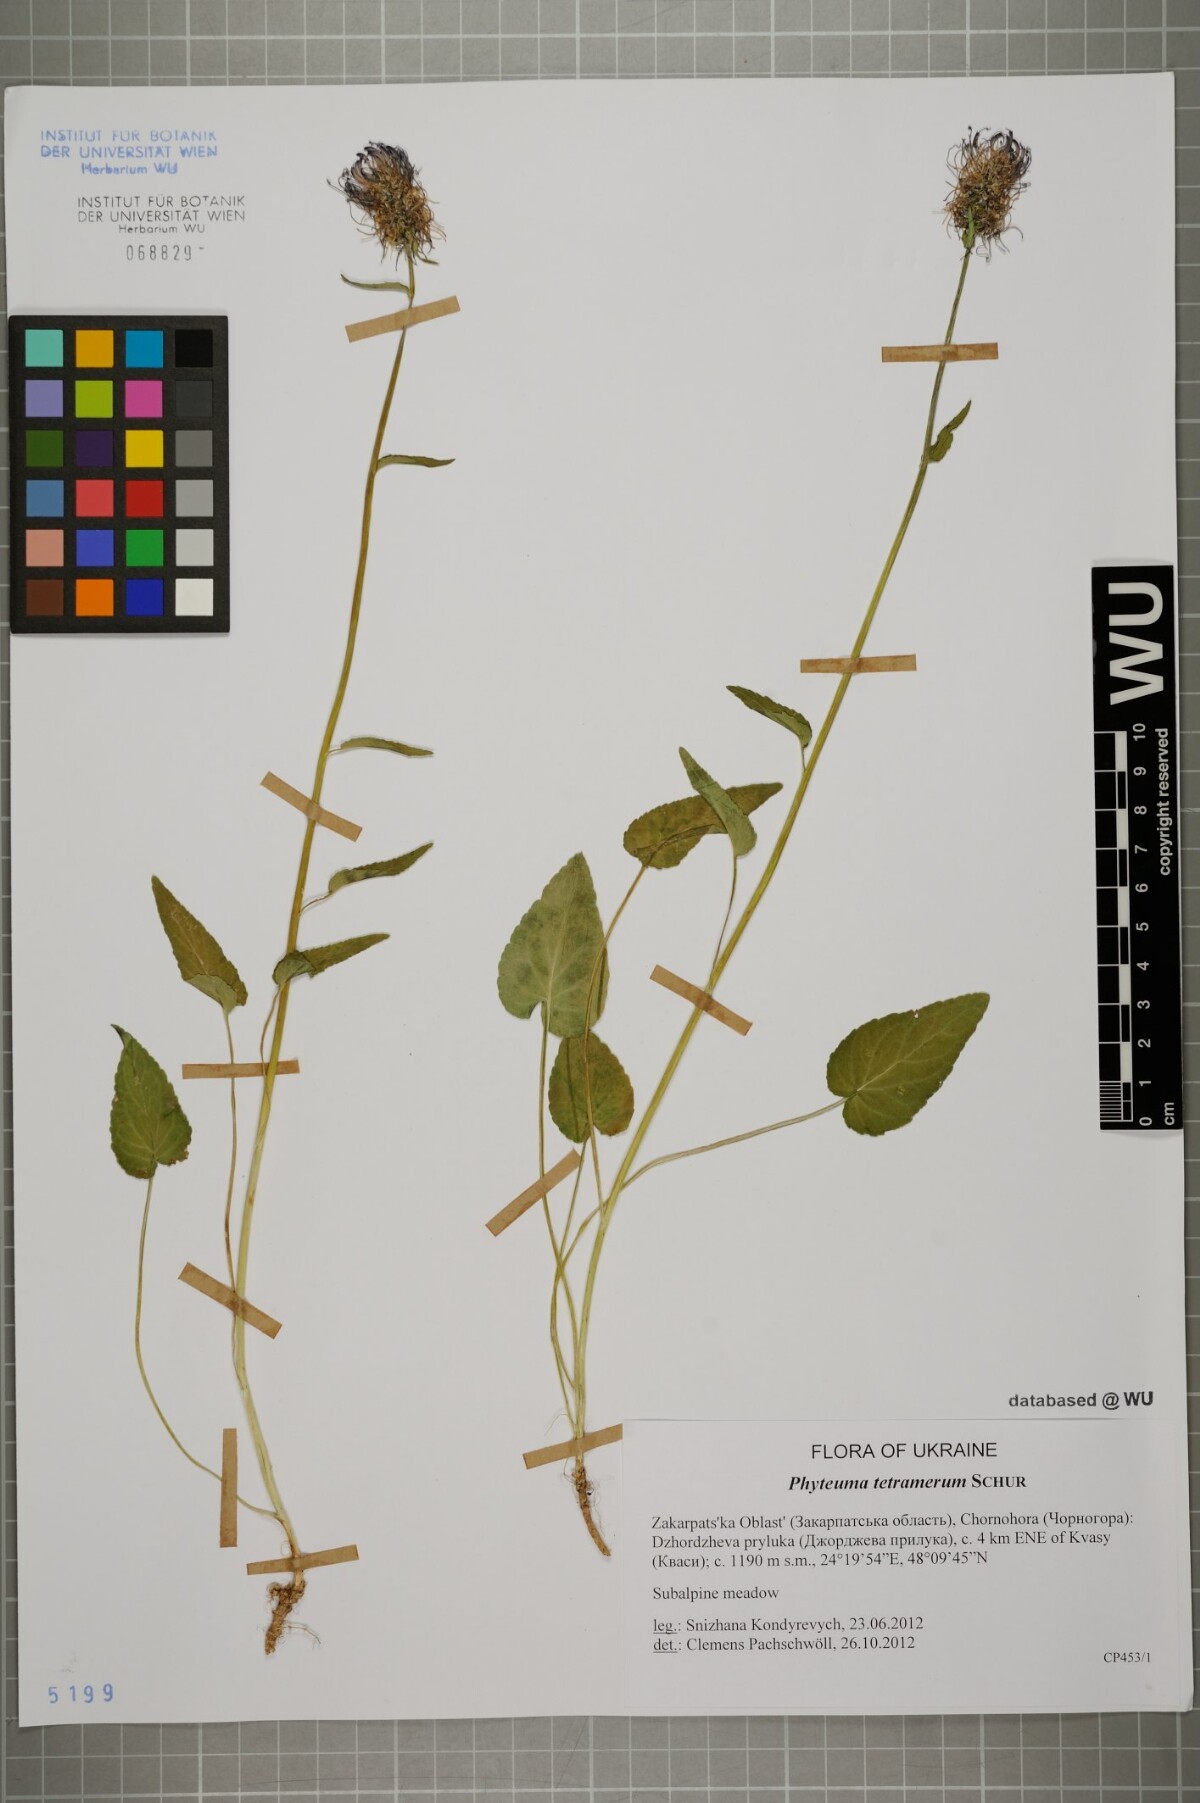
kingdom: Plantae
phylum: Tracheophyta
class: Magnoliopsida
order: Asterales
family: Campanulaceae
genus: Phyteuma
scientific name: Phyteuma tetramerum
